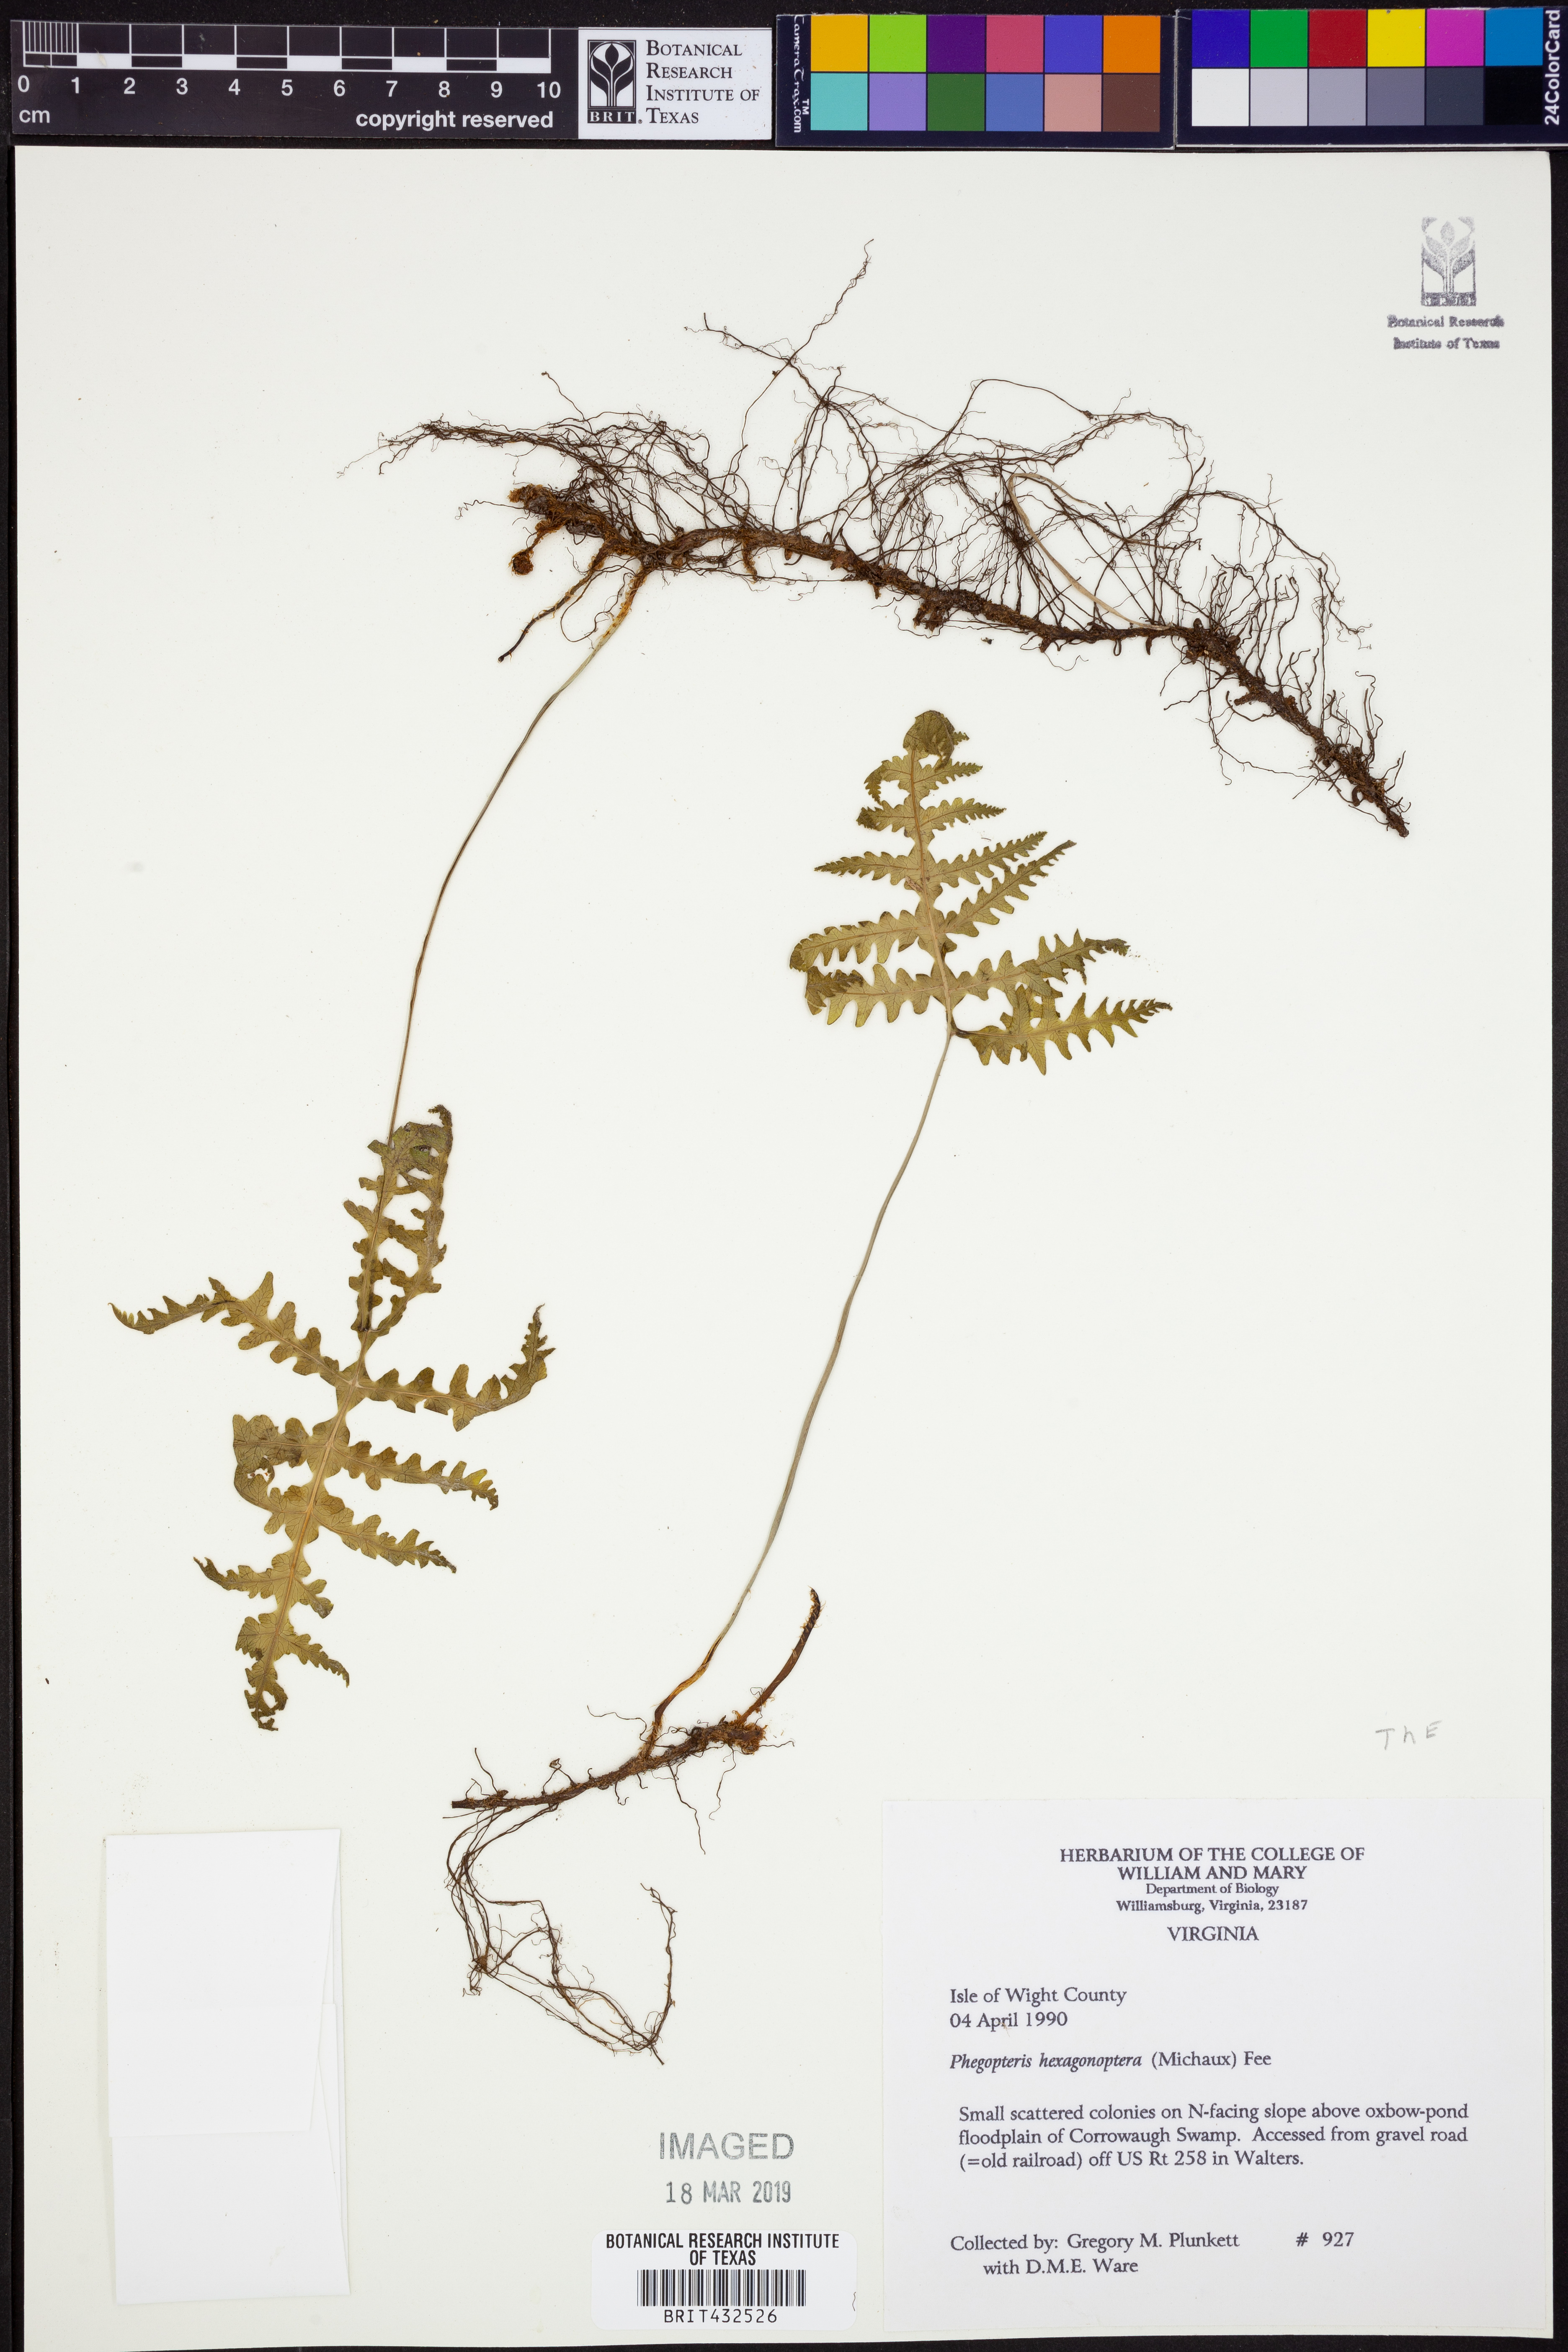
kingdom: Plantae
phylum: Tracheophyta
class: Polypodiopsida
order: Polypodiales
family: Thelypteridaceae
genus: Phegopteris
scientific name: Phegopteris hexagonoptera
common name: Broad beech fern
